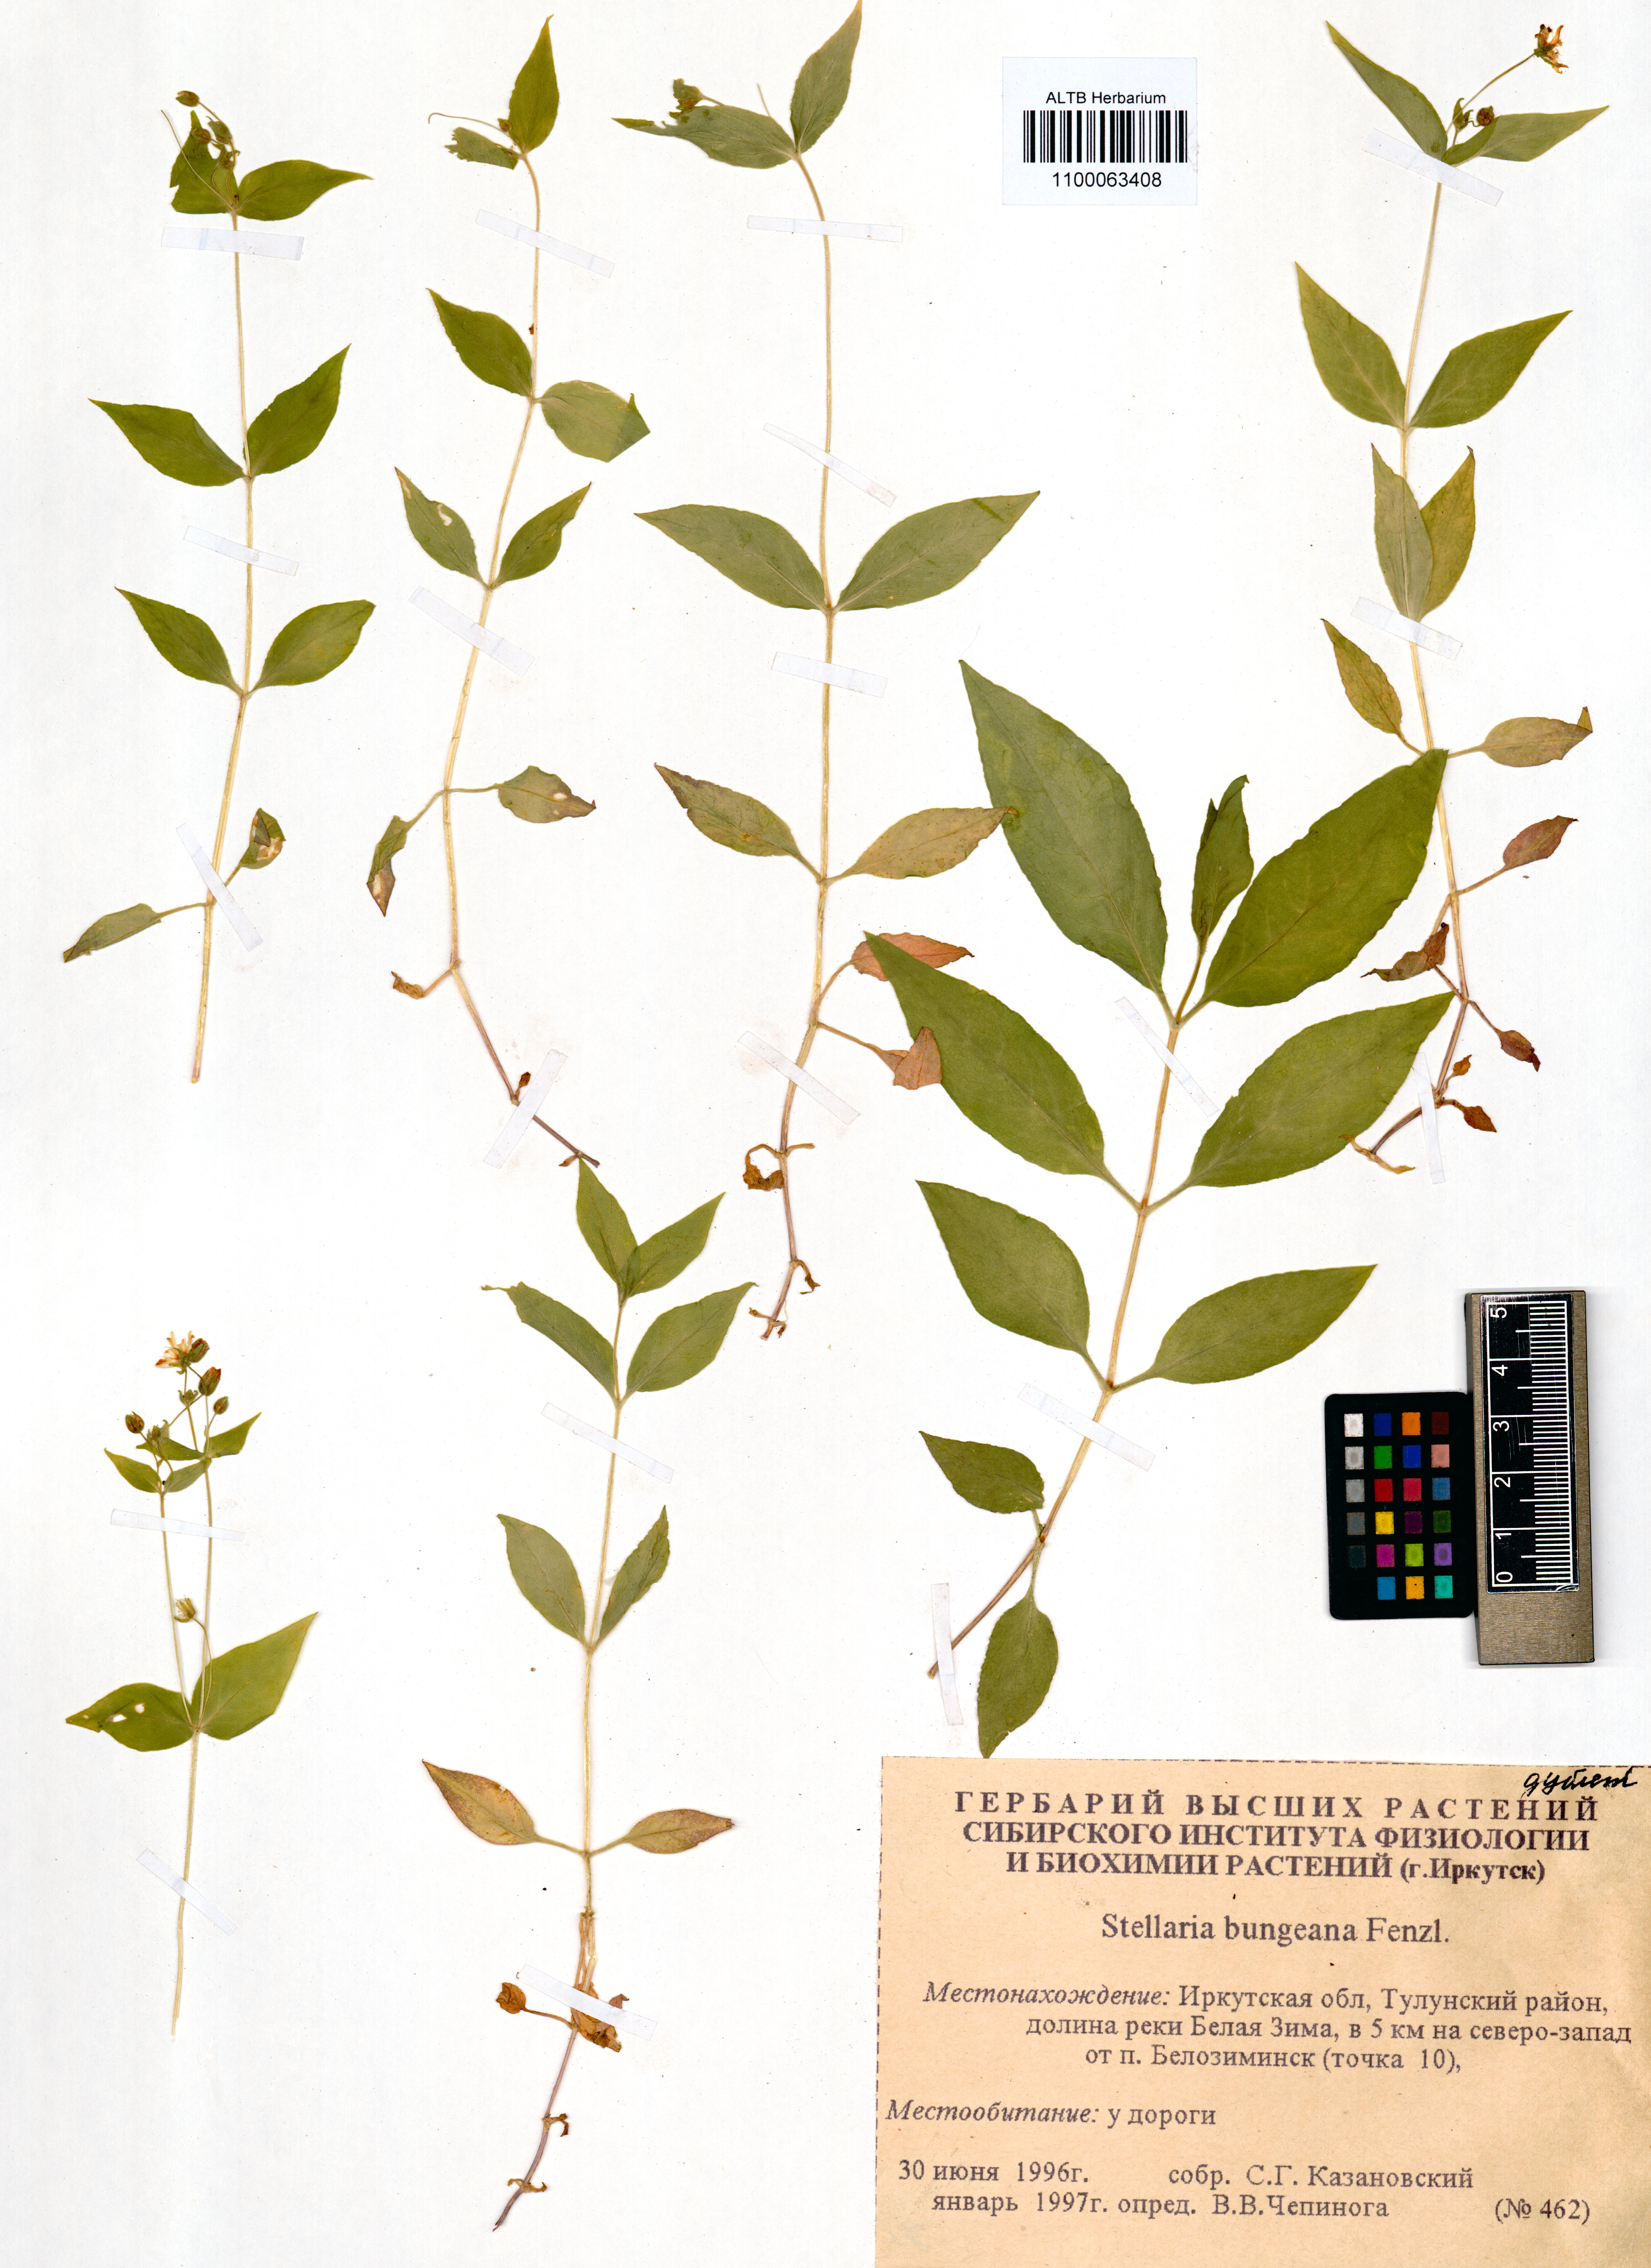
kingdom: Plantae
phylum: Tracheophyta
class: Magnoliopsida
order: Caryophyllales
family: Caryophyllaceae
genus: Stellaria
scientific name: Stellaria bungeana
